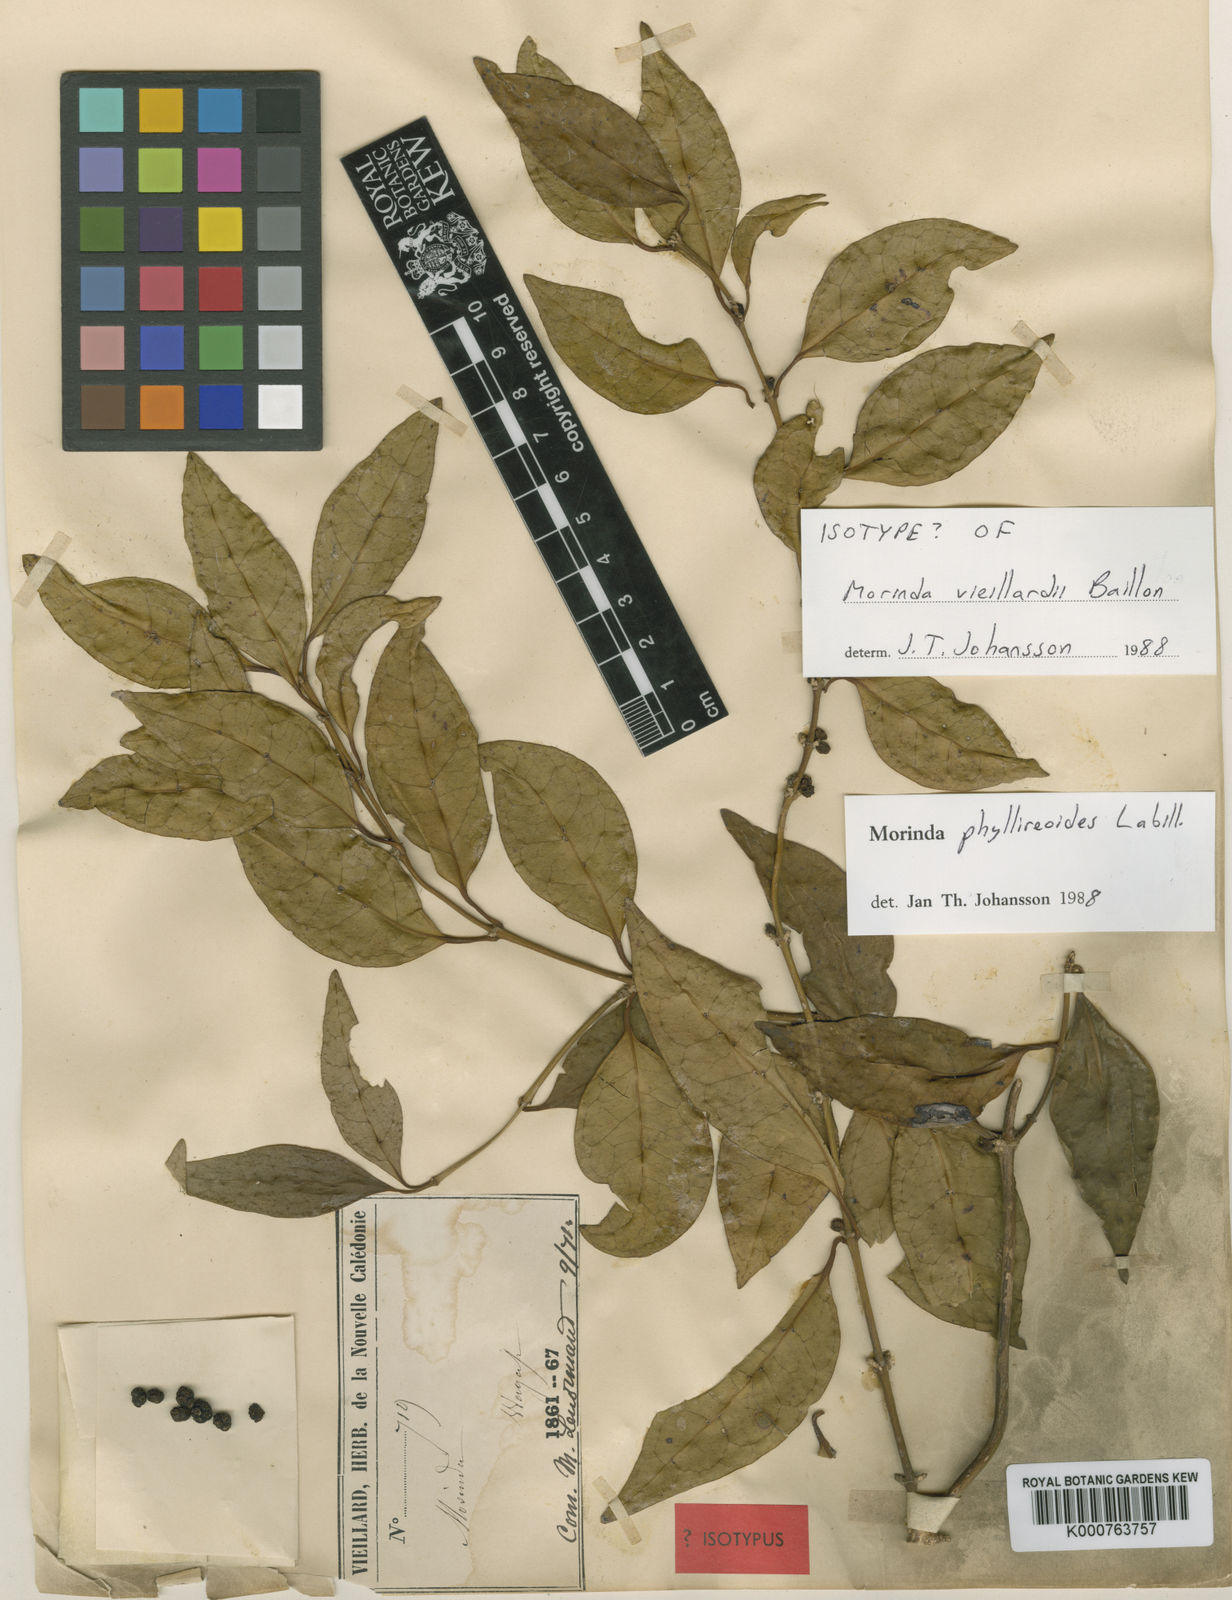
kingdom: Plantae
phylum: Tracheophyta
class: Magnoliopsida
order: Gentianales
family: Rubiaceae
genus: Gynochthodes
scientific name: Gynochthodes phyllireoides
